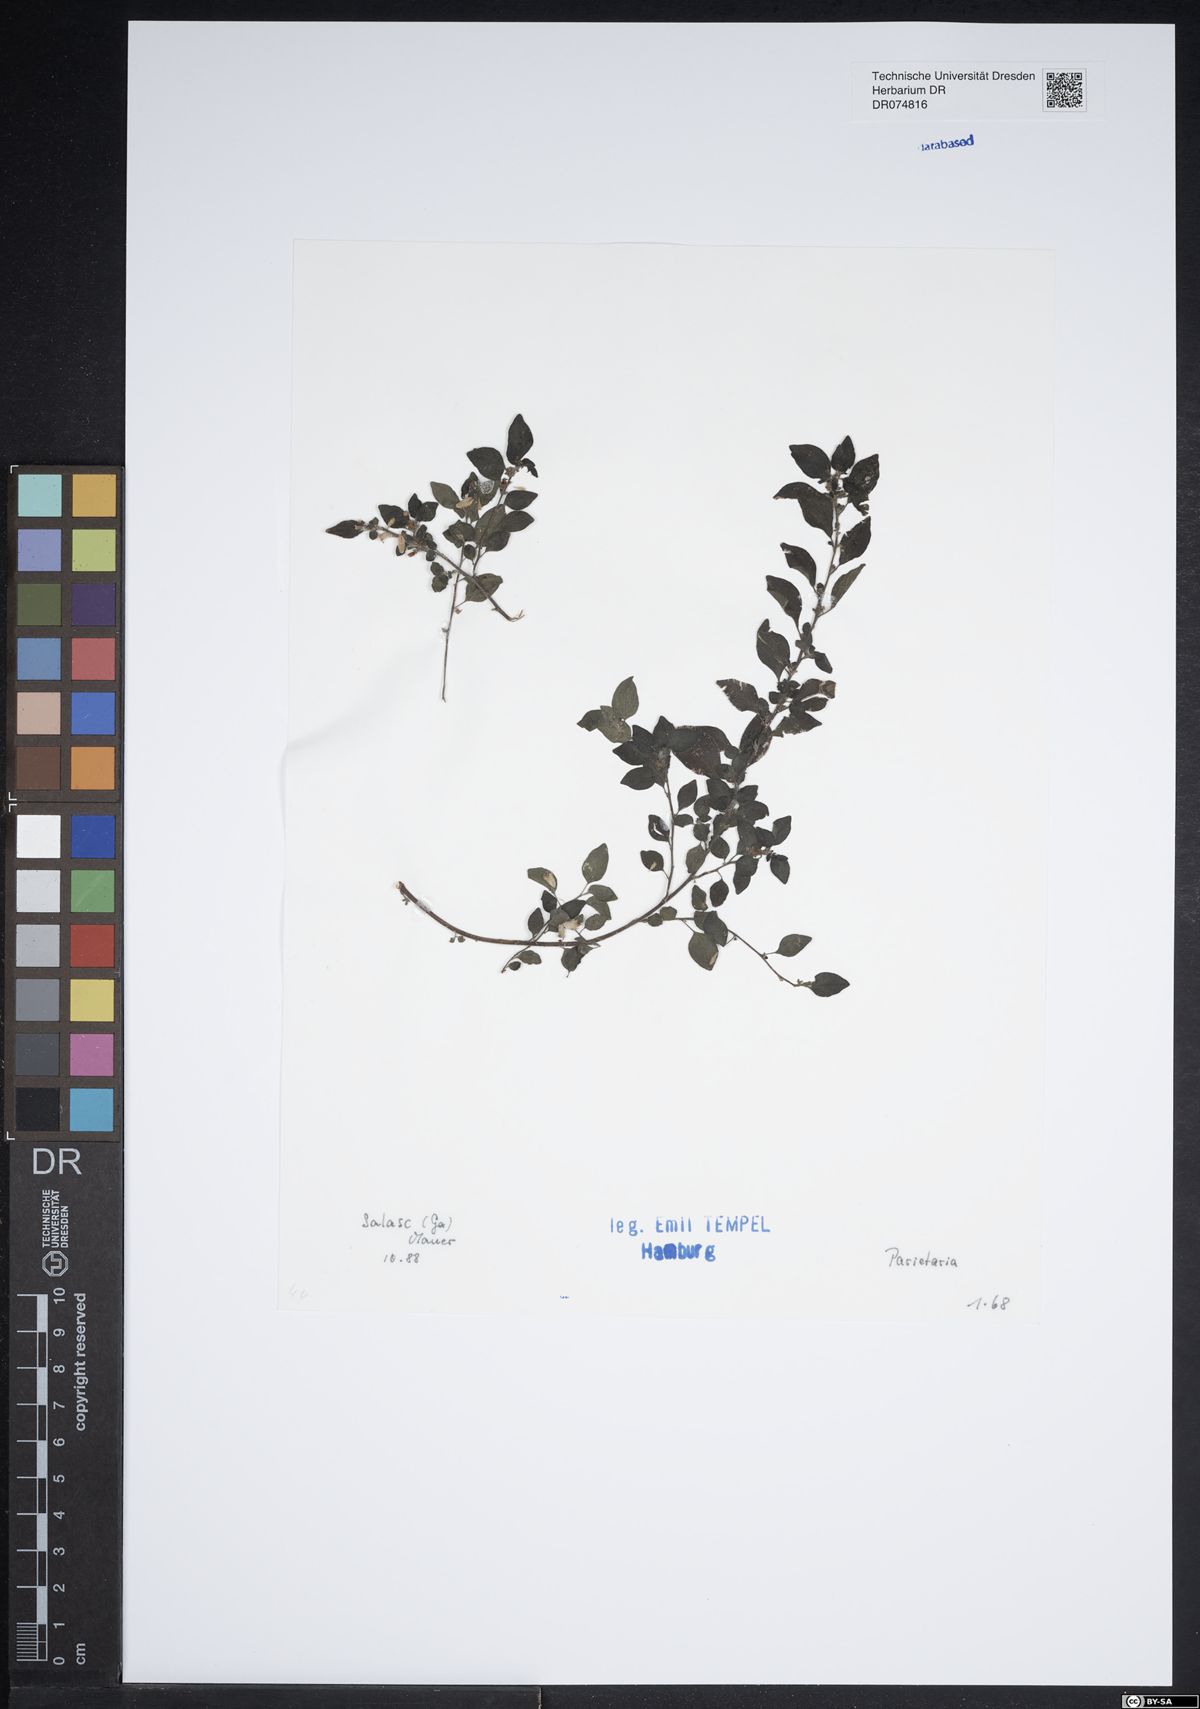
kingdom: Plantae
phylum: Tracheophyta
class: Magnoliopsida
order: Rosales
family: Urticaceae
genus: Parietaria
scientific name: Parietaria
